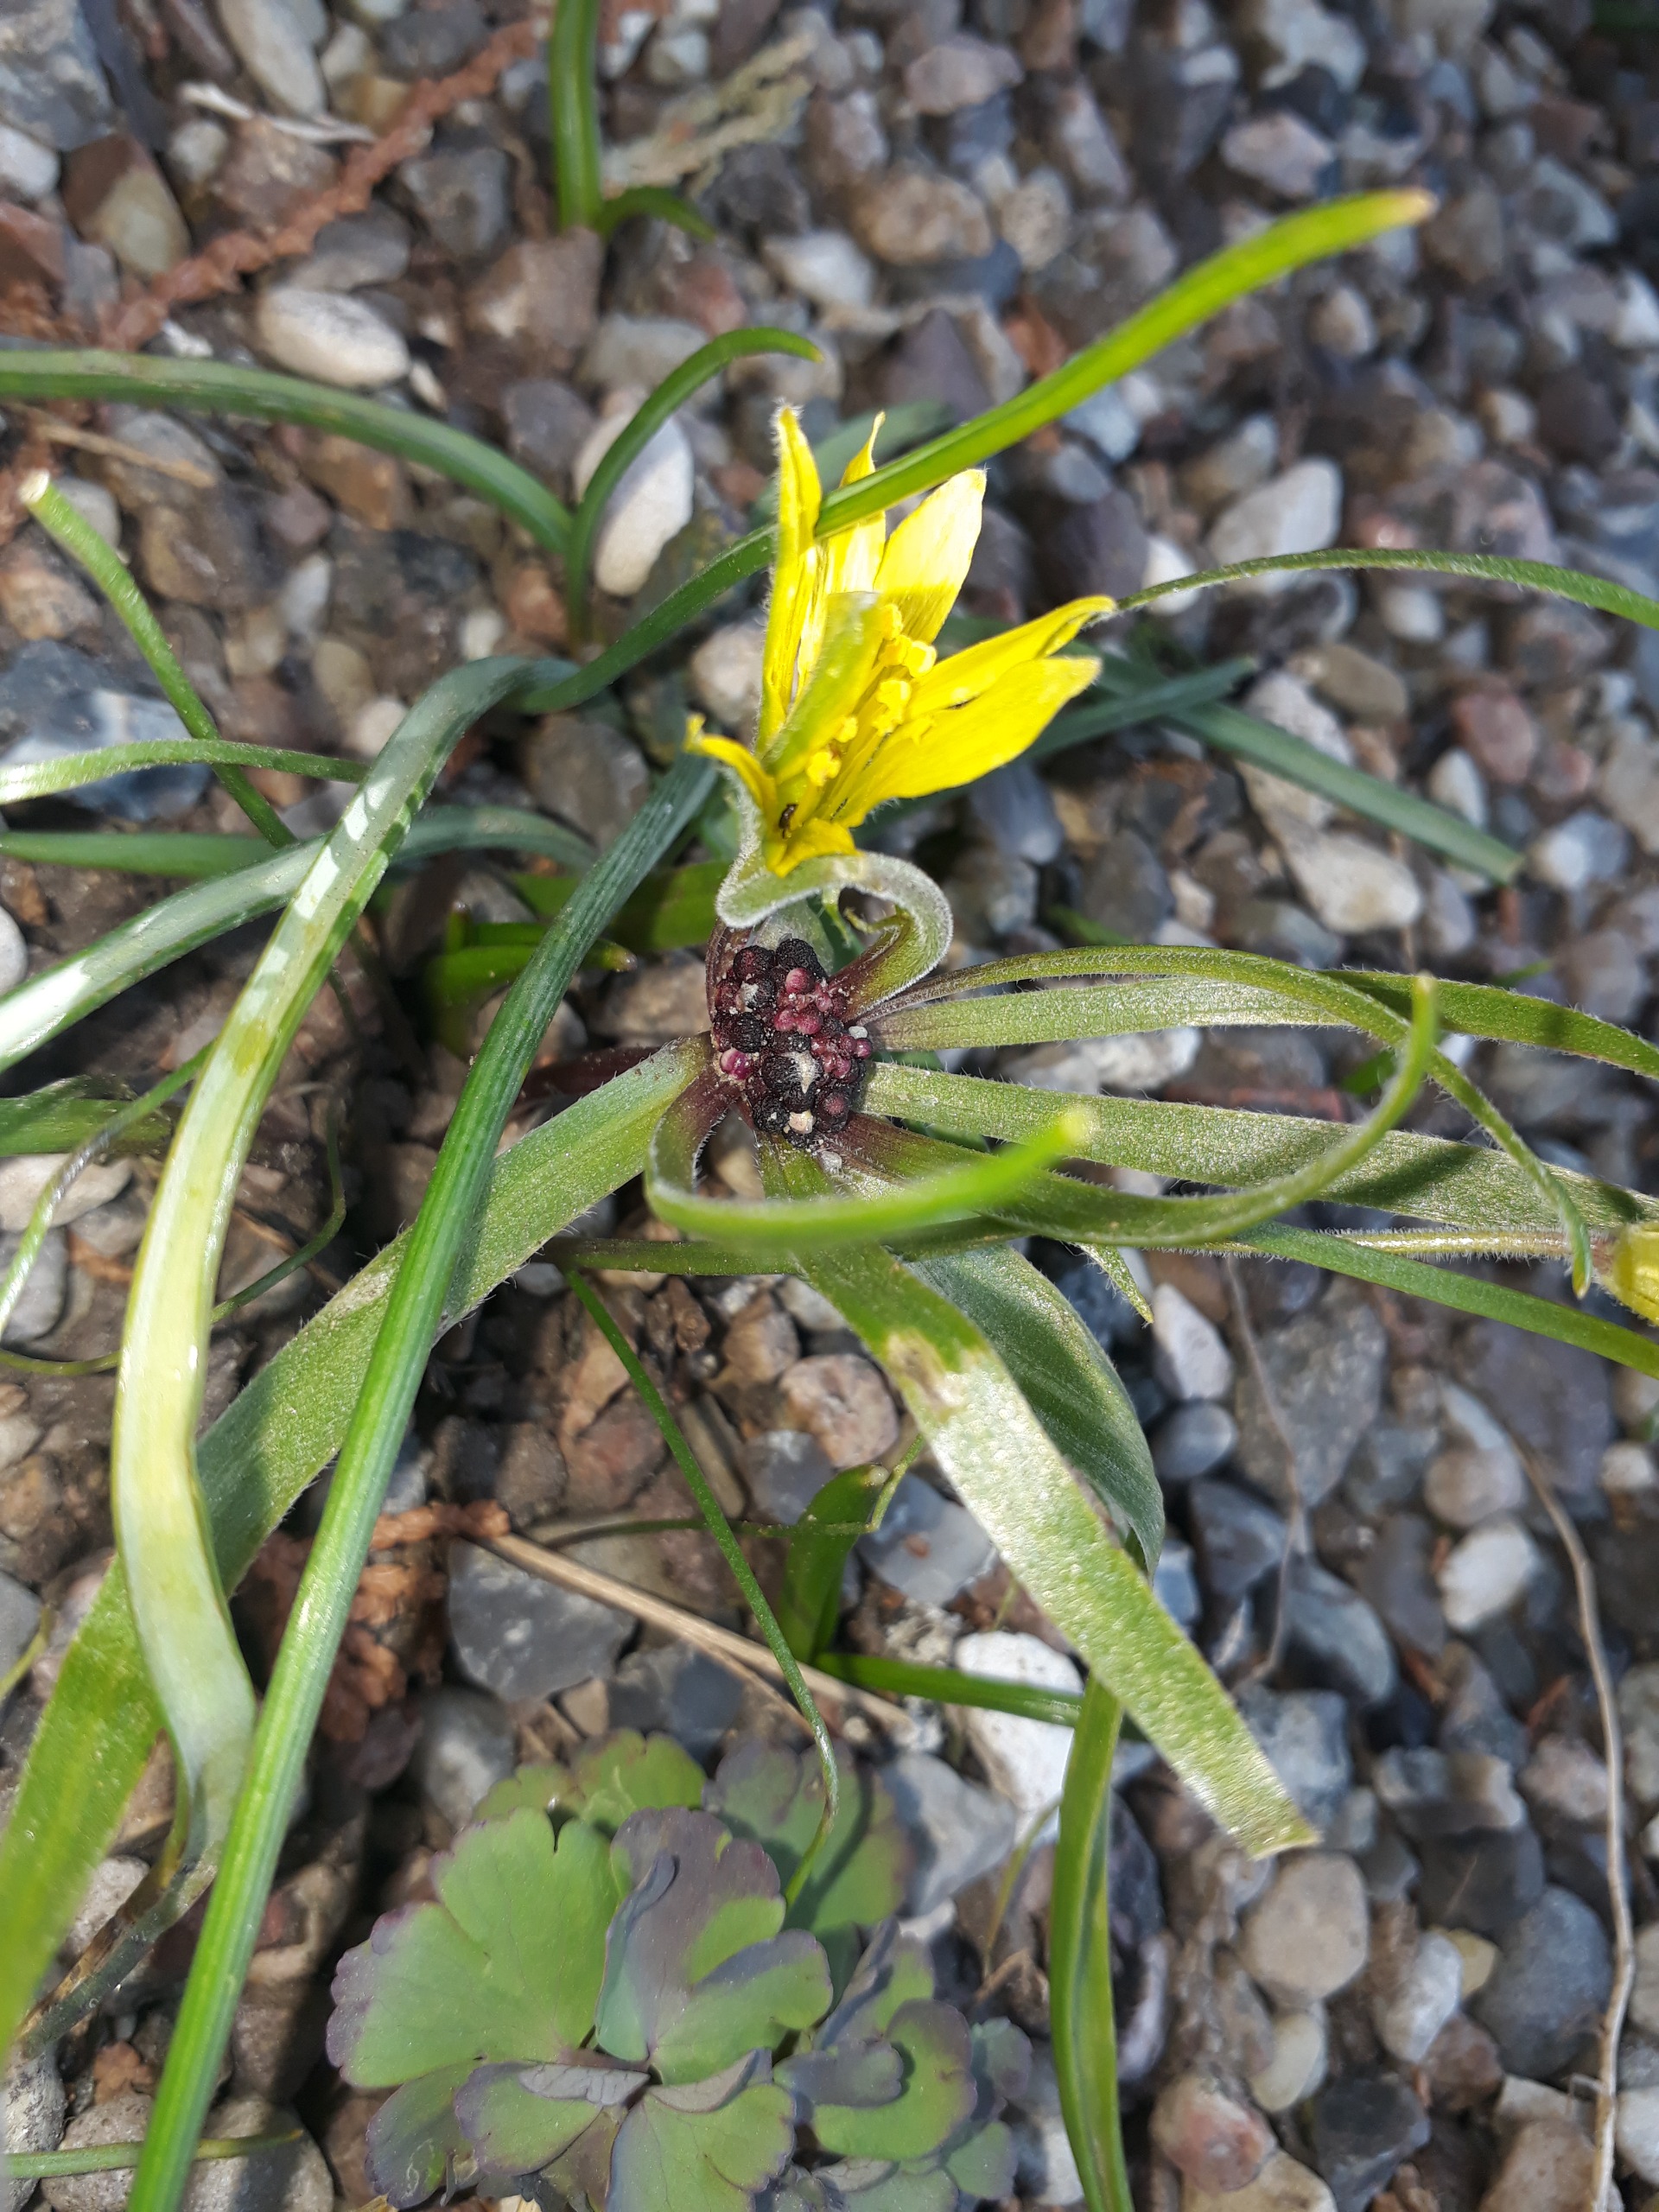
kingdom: Plantae
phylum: Tracheophyta
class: Liliopsida
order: Liliales
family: Liliaceae
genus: Gagea
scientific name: Gagea villosa
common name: Ager-guldstjerne
